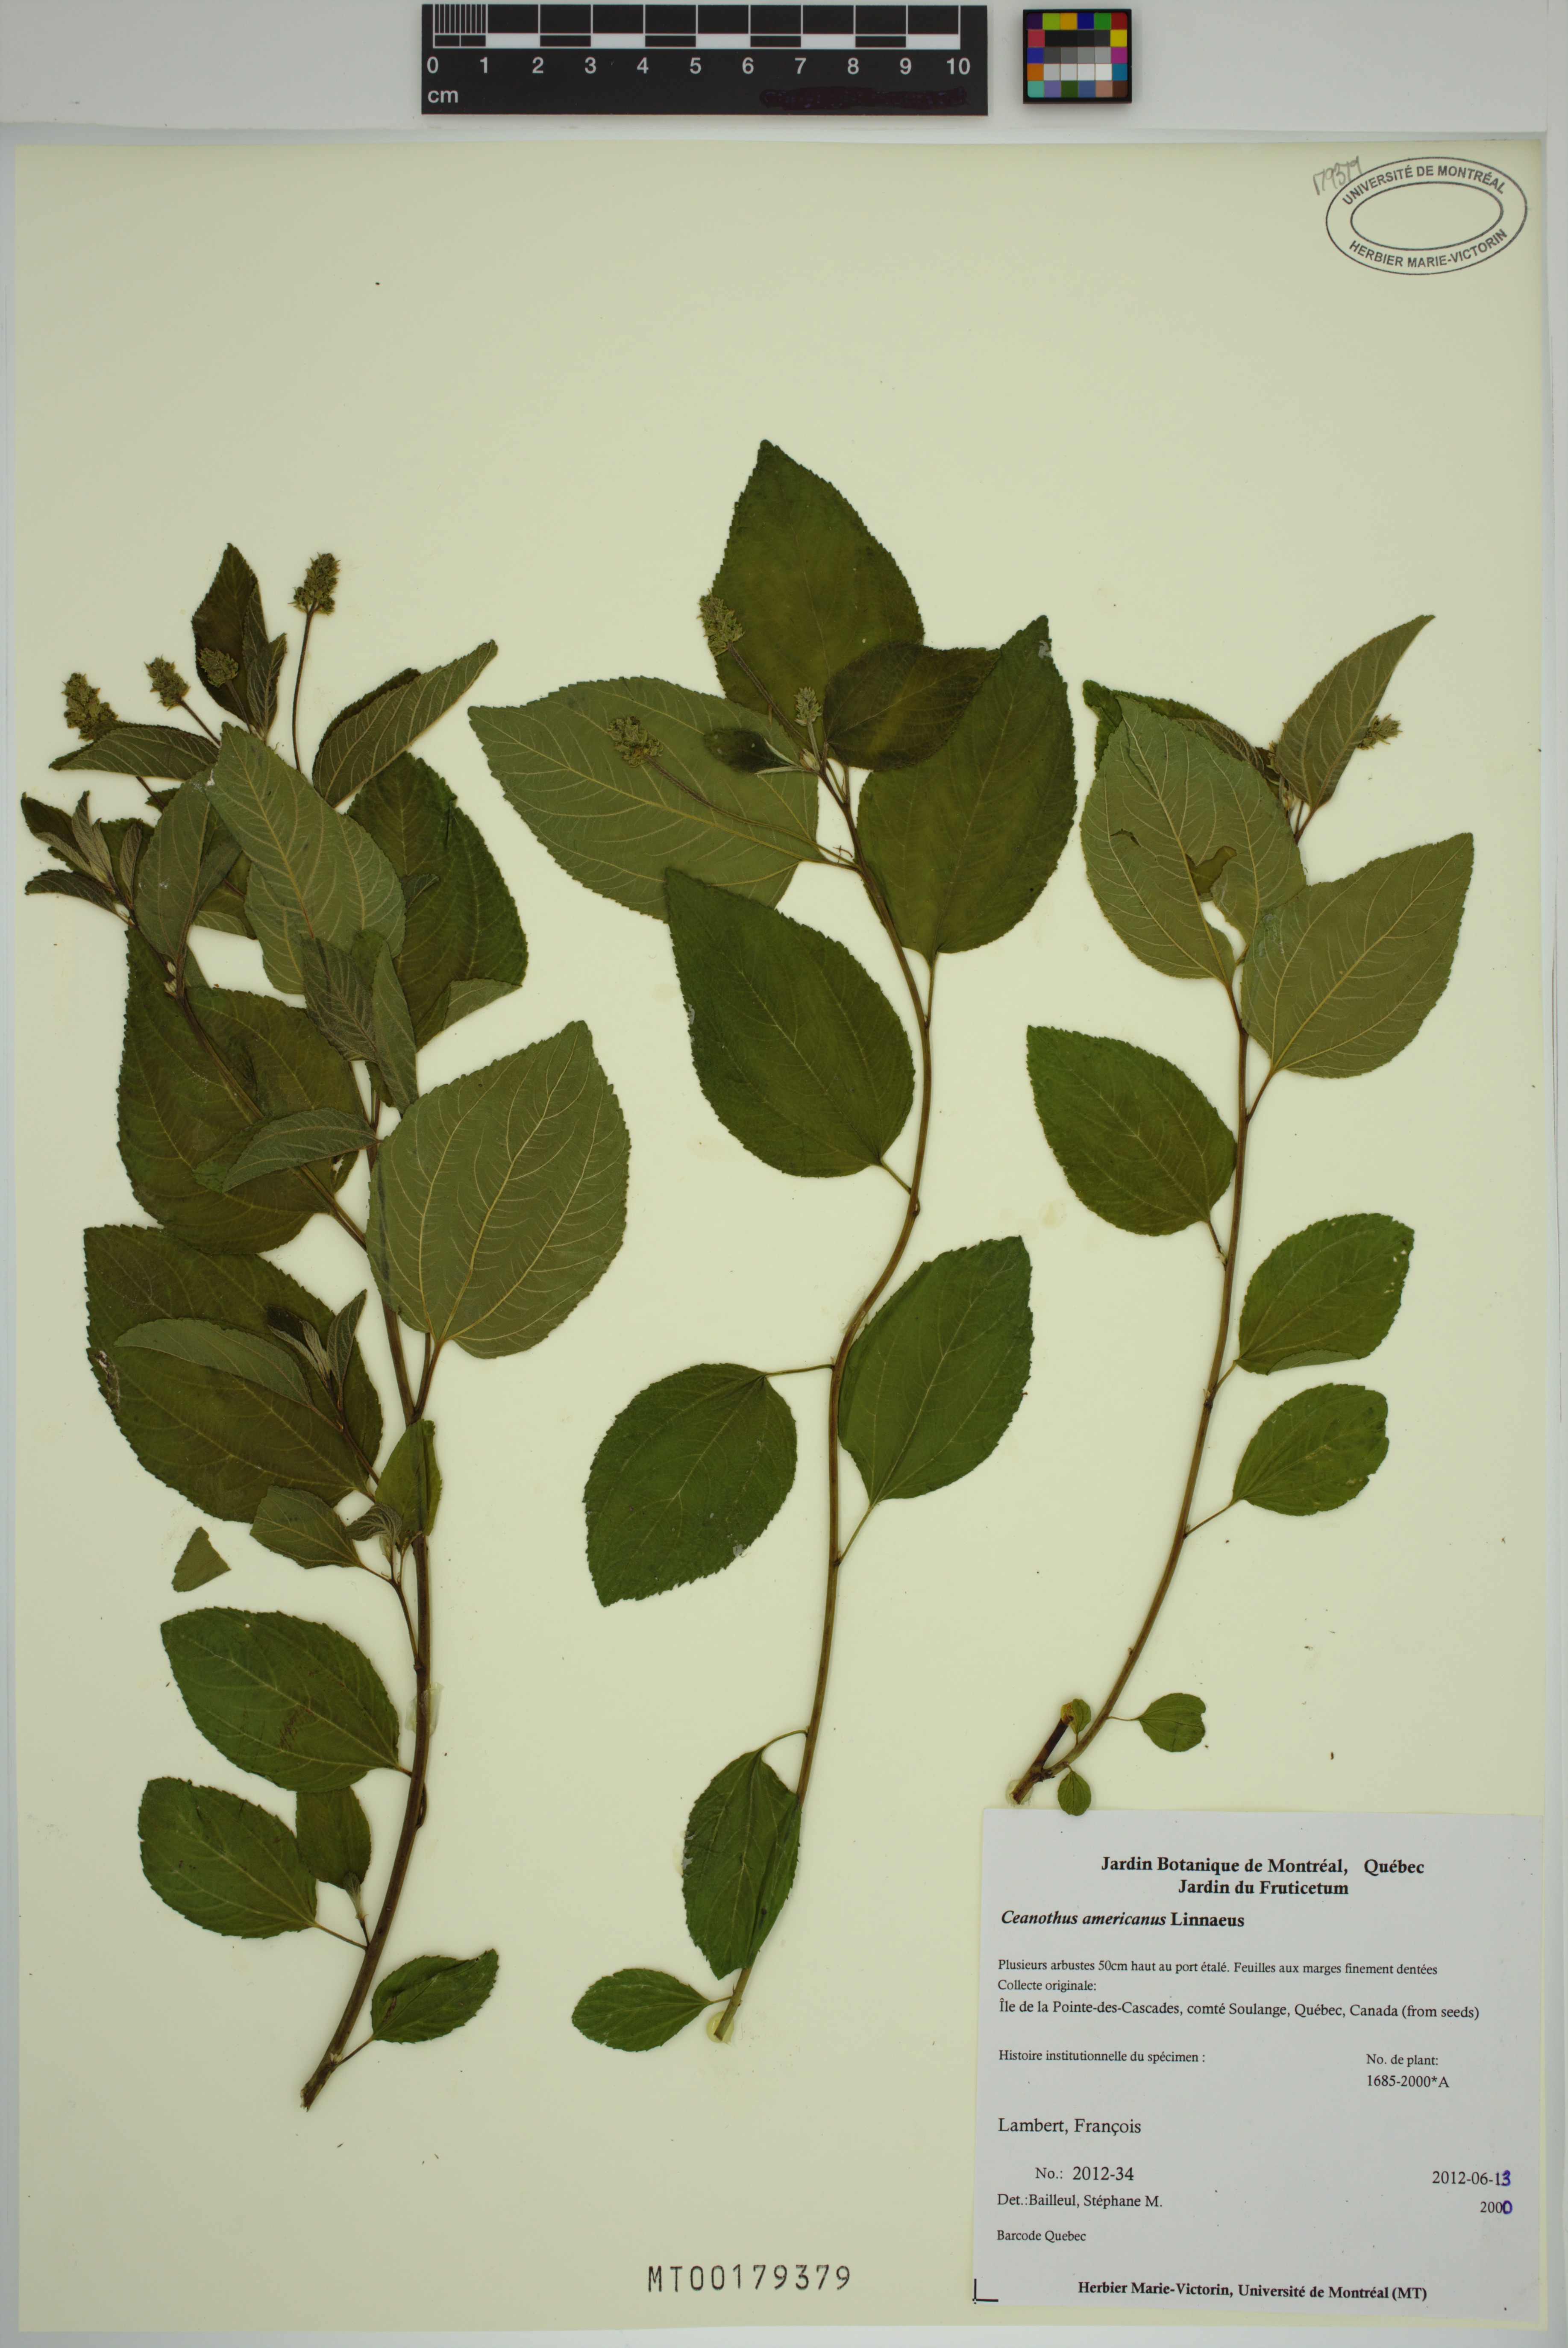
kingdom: Plantae
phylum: Tracheophyta
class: Magnoliopsida
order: Rosales
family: Rhamnaceae
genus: Ceanothus
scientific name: Ceanothus americanus
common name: Redroot
